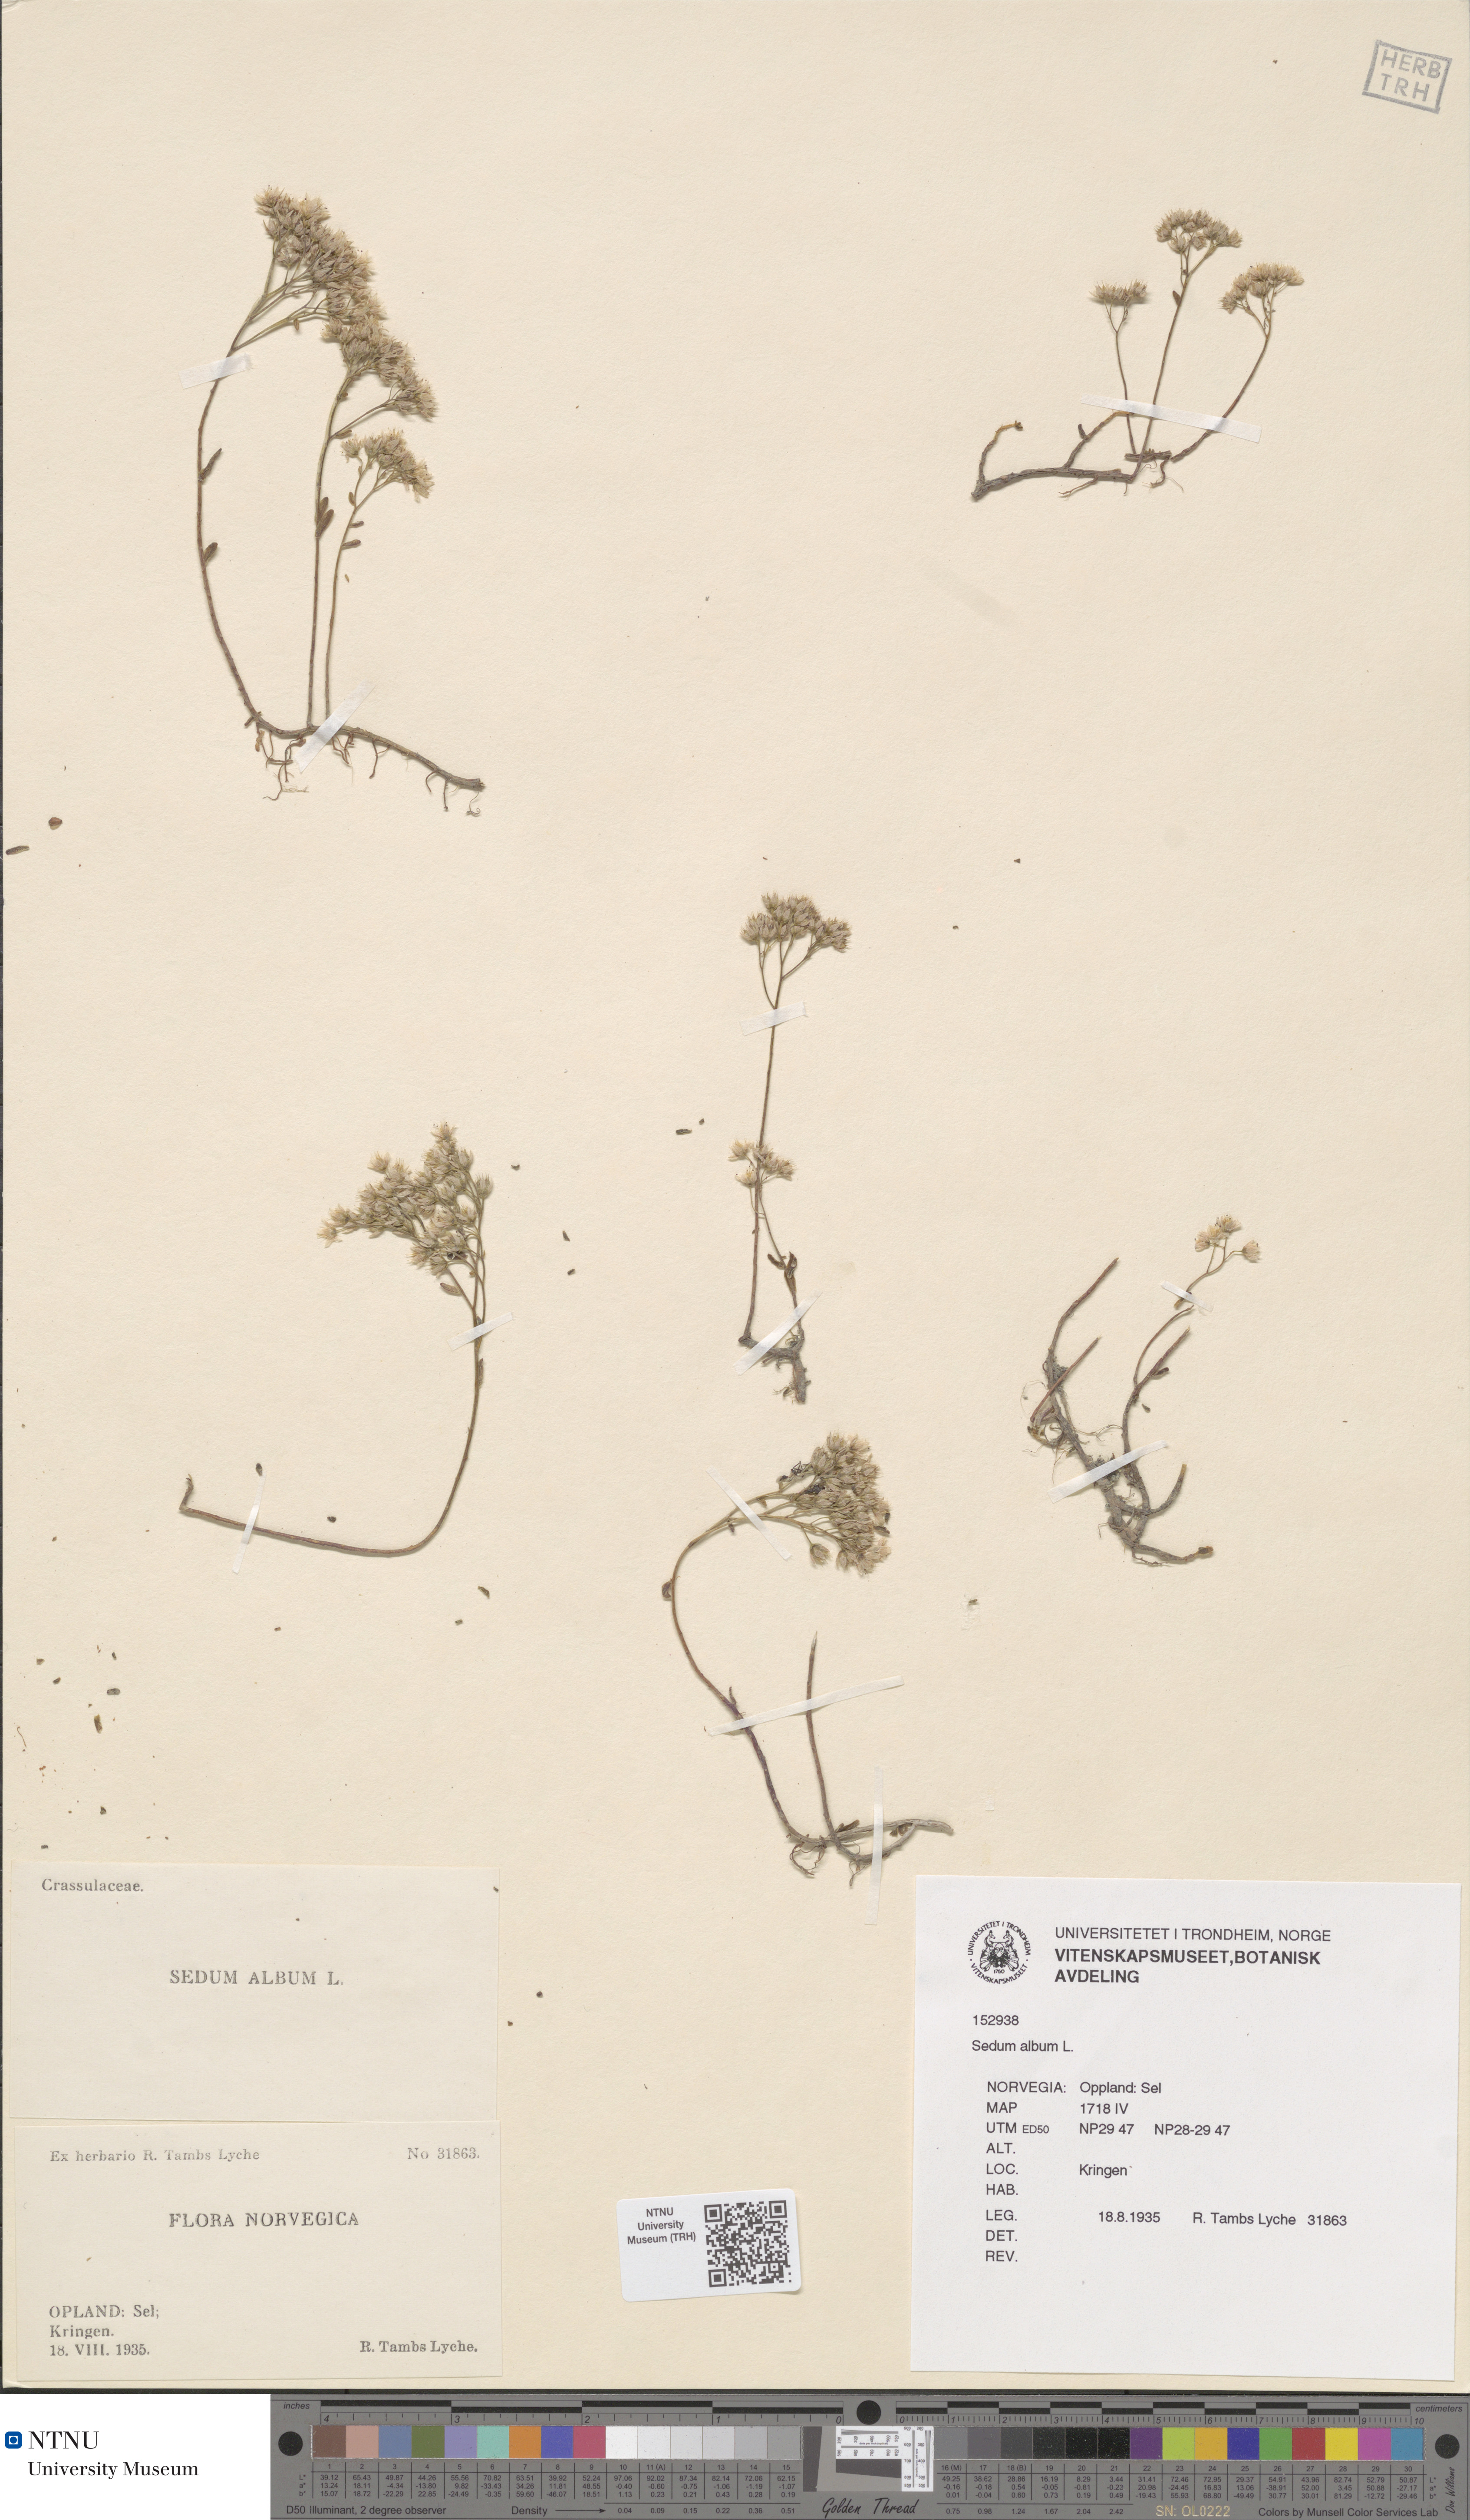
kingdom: Plantae
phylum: Tracheophyta
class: Magnoliopsida
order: Saxifragales
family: Crassulaceae
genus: Sedum
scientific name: Sedum album
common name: White stonecrop
